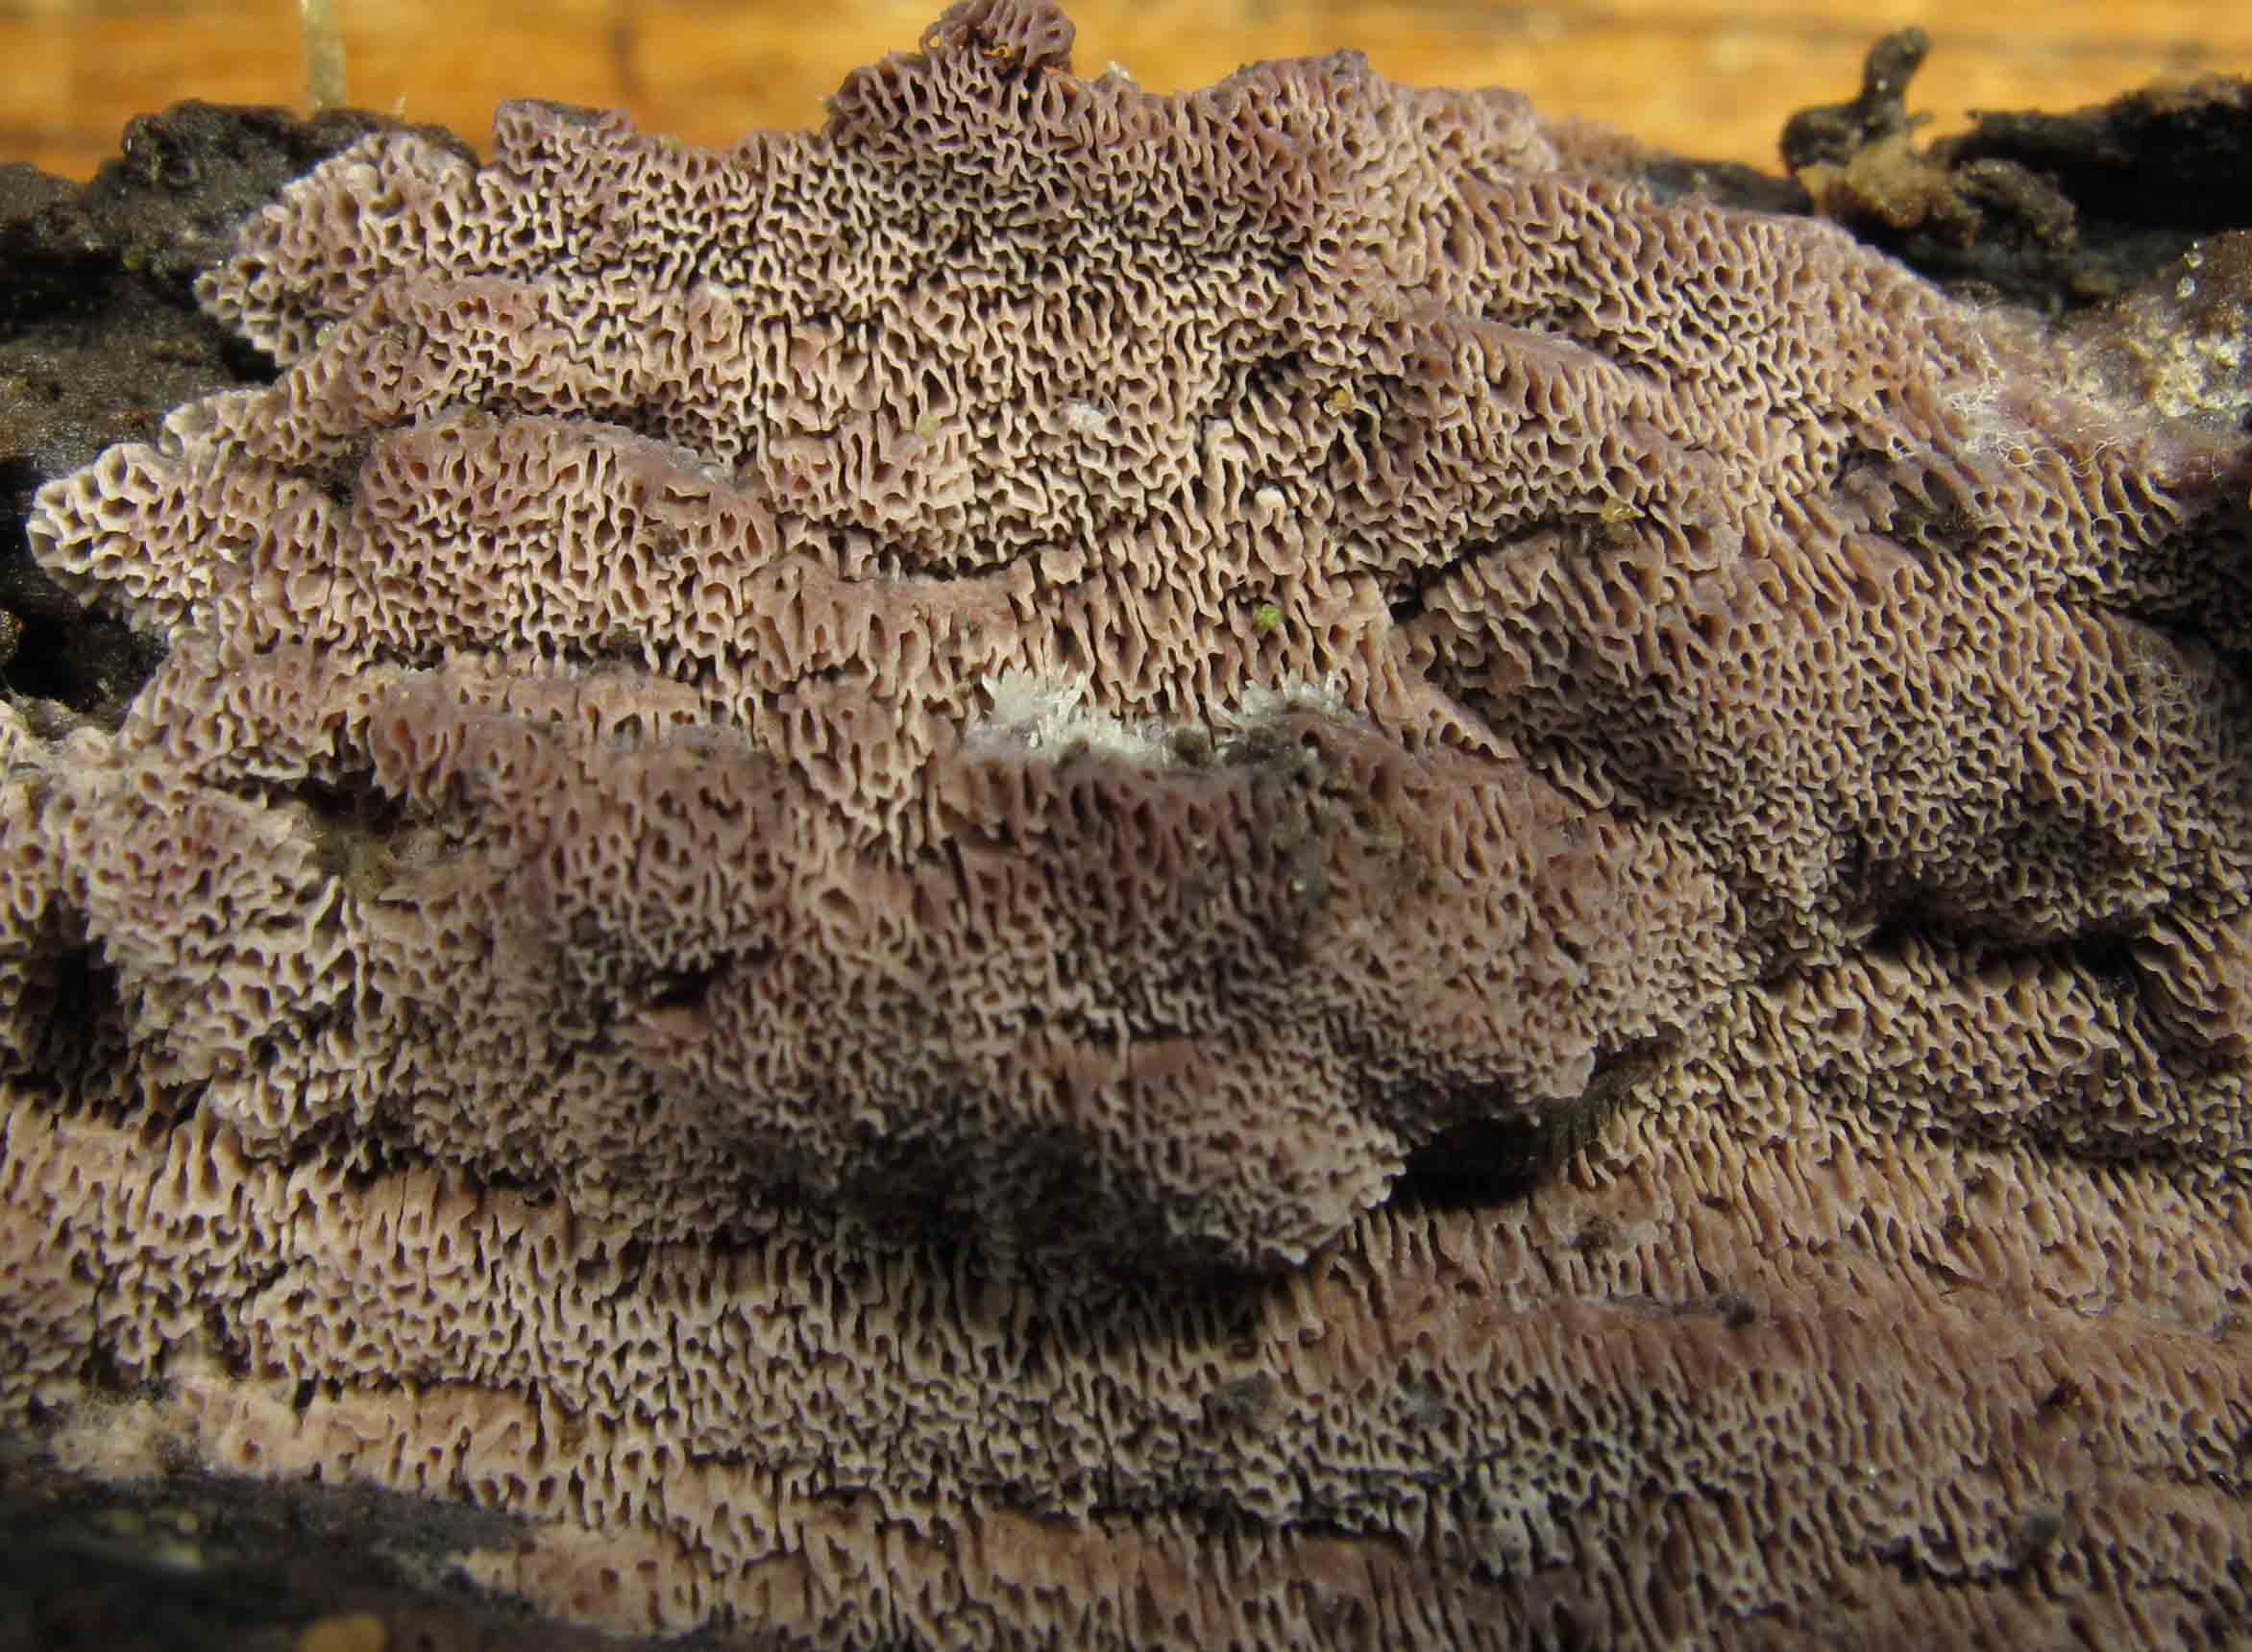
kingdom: Fungi
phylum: Basidiomycota
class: Agaricomycetes
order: Polyporales
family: Irpicaceae
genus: Ceriporia
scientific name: Ceriporia excelsa
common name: lilla voksporesvamp
